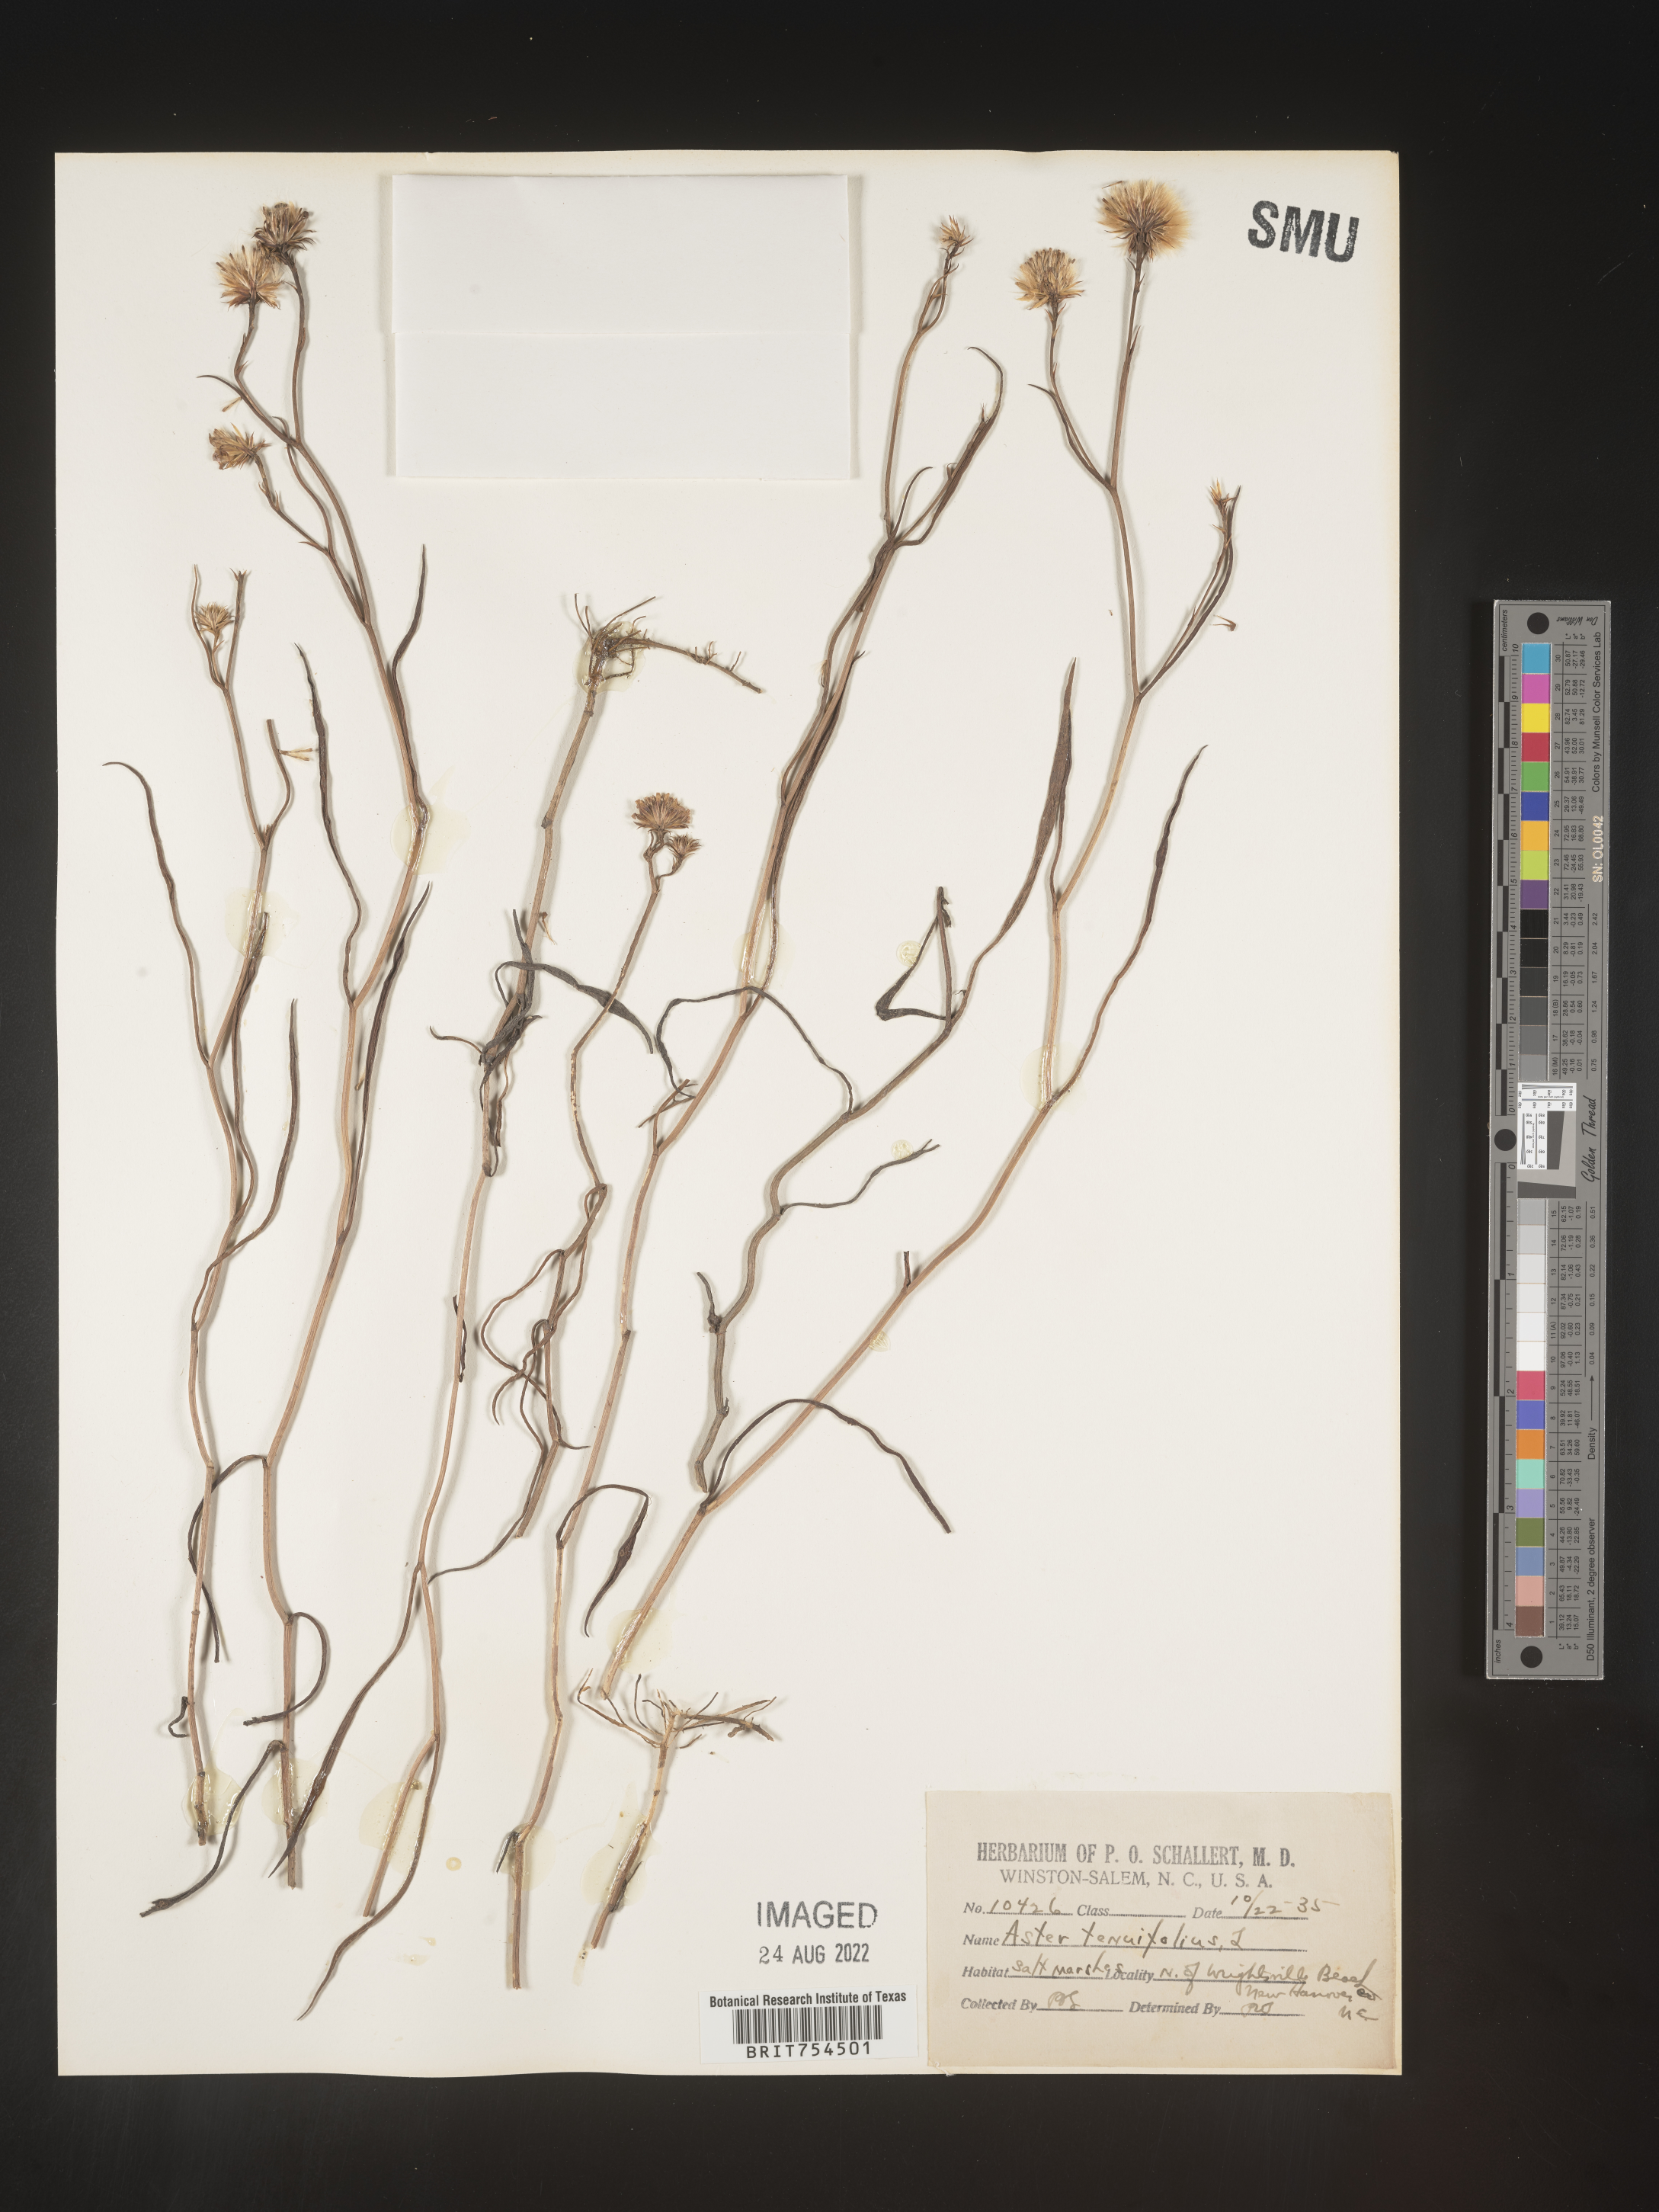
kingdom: Plantae
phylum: Tracheophyta
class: Magnoliopsida
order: Asterales
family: Asteraceae
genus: Symphyotrichum
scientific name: Symphyotrichum tenuifolium
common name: Perennial salt-marsh aster
